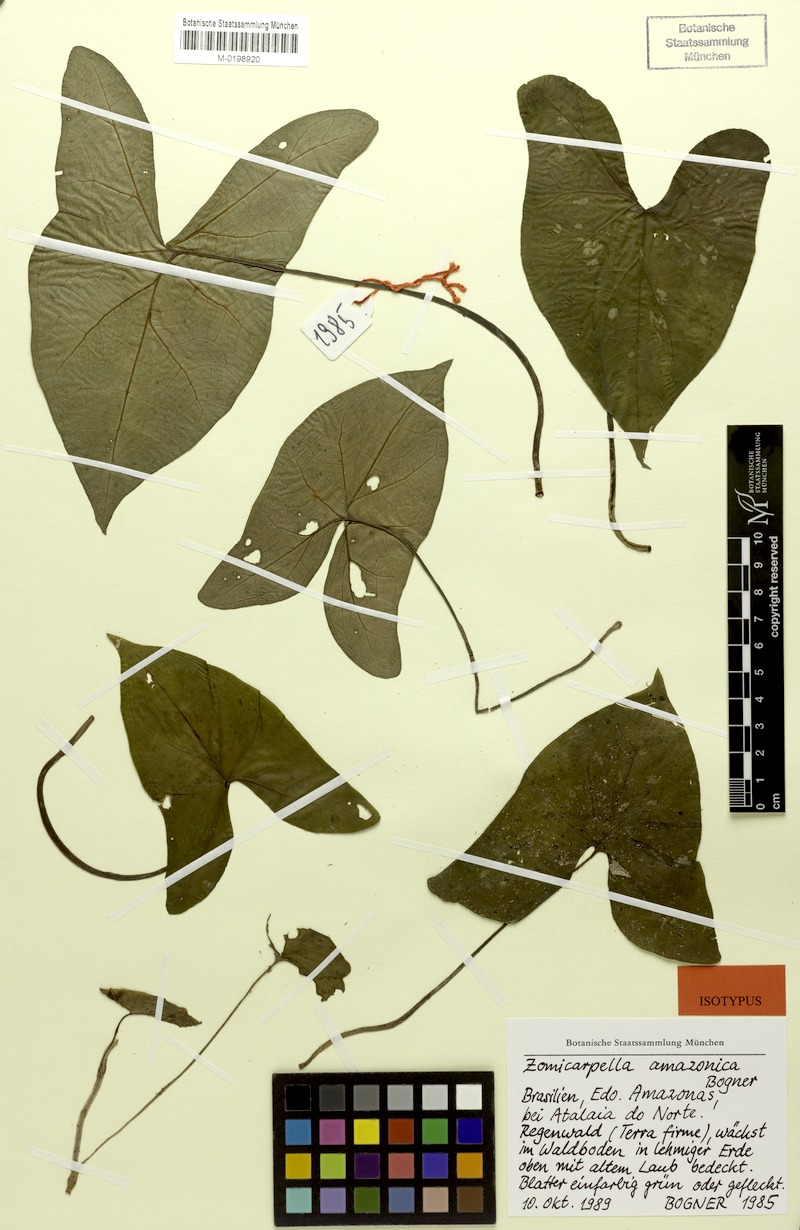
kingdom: Plantae
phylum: Tracheophyta
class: Liliopsida
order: Alismatales
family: Araceae
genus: Zomicarpella
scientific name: Zomicarpella amazonica
